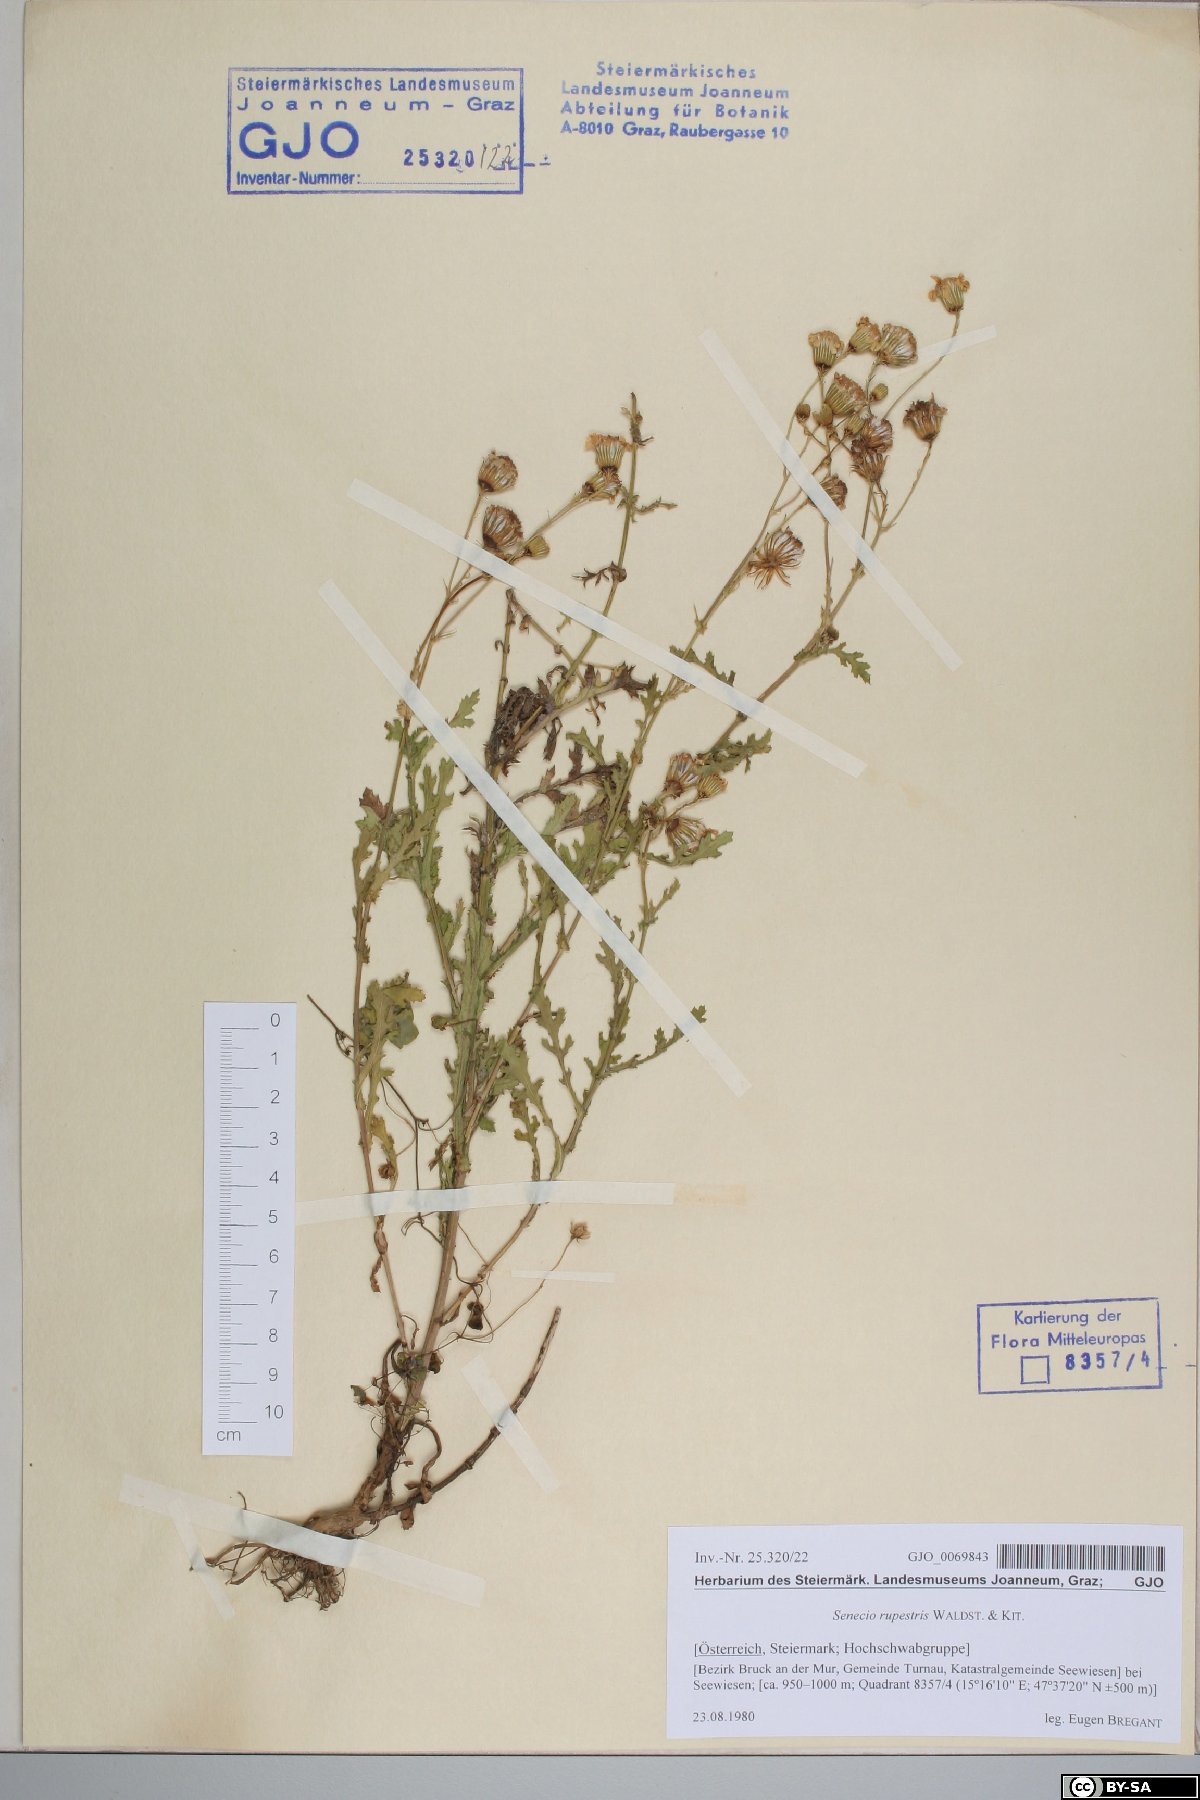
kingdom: Plantae
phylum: Tracheophyta
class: Magnoliopsida
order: Asterales
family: Asteraceae
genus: Senecio
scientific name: Senecio rupestris
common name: Rock ragwort
